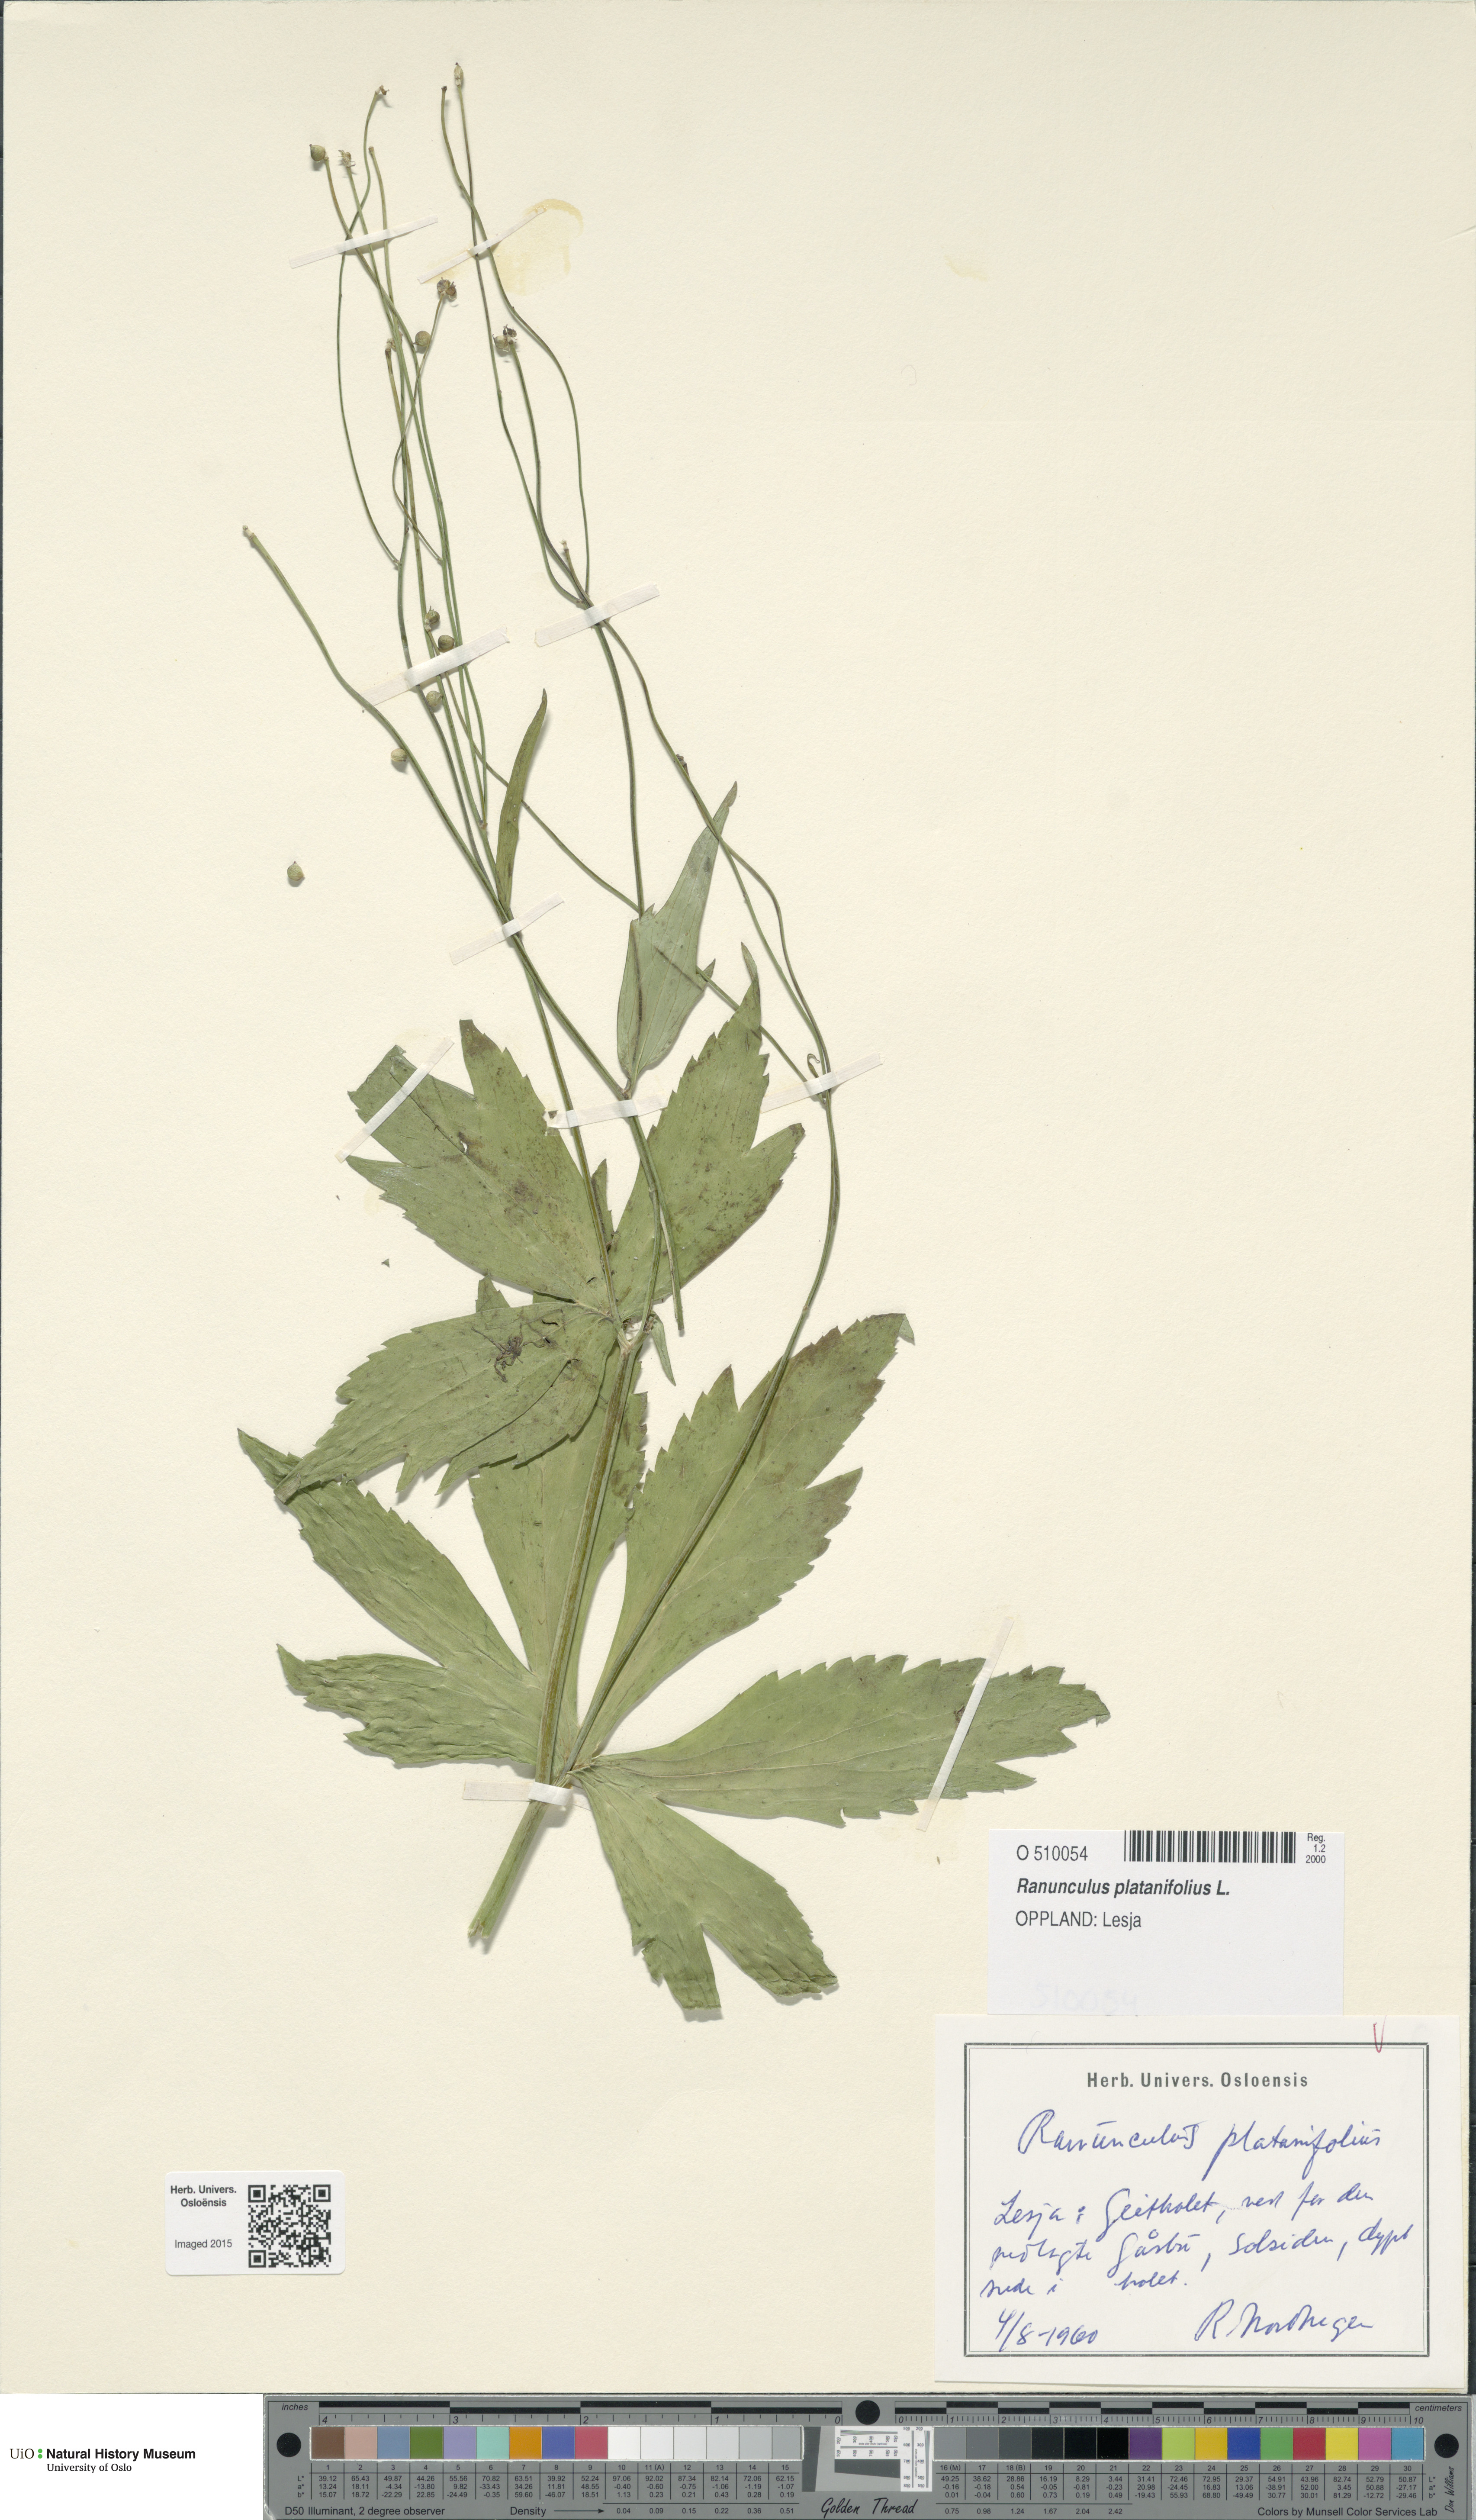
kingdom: Plantae
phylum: Tracheophyta
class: Magnoliopsida
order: Ranunculales
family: Ranunculaceae
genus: Ranunculus
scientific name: Ranunculus platanifolius
